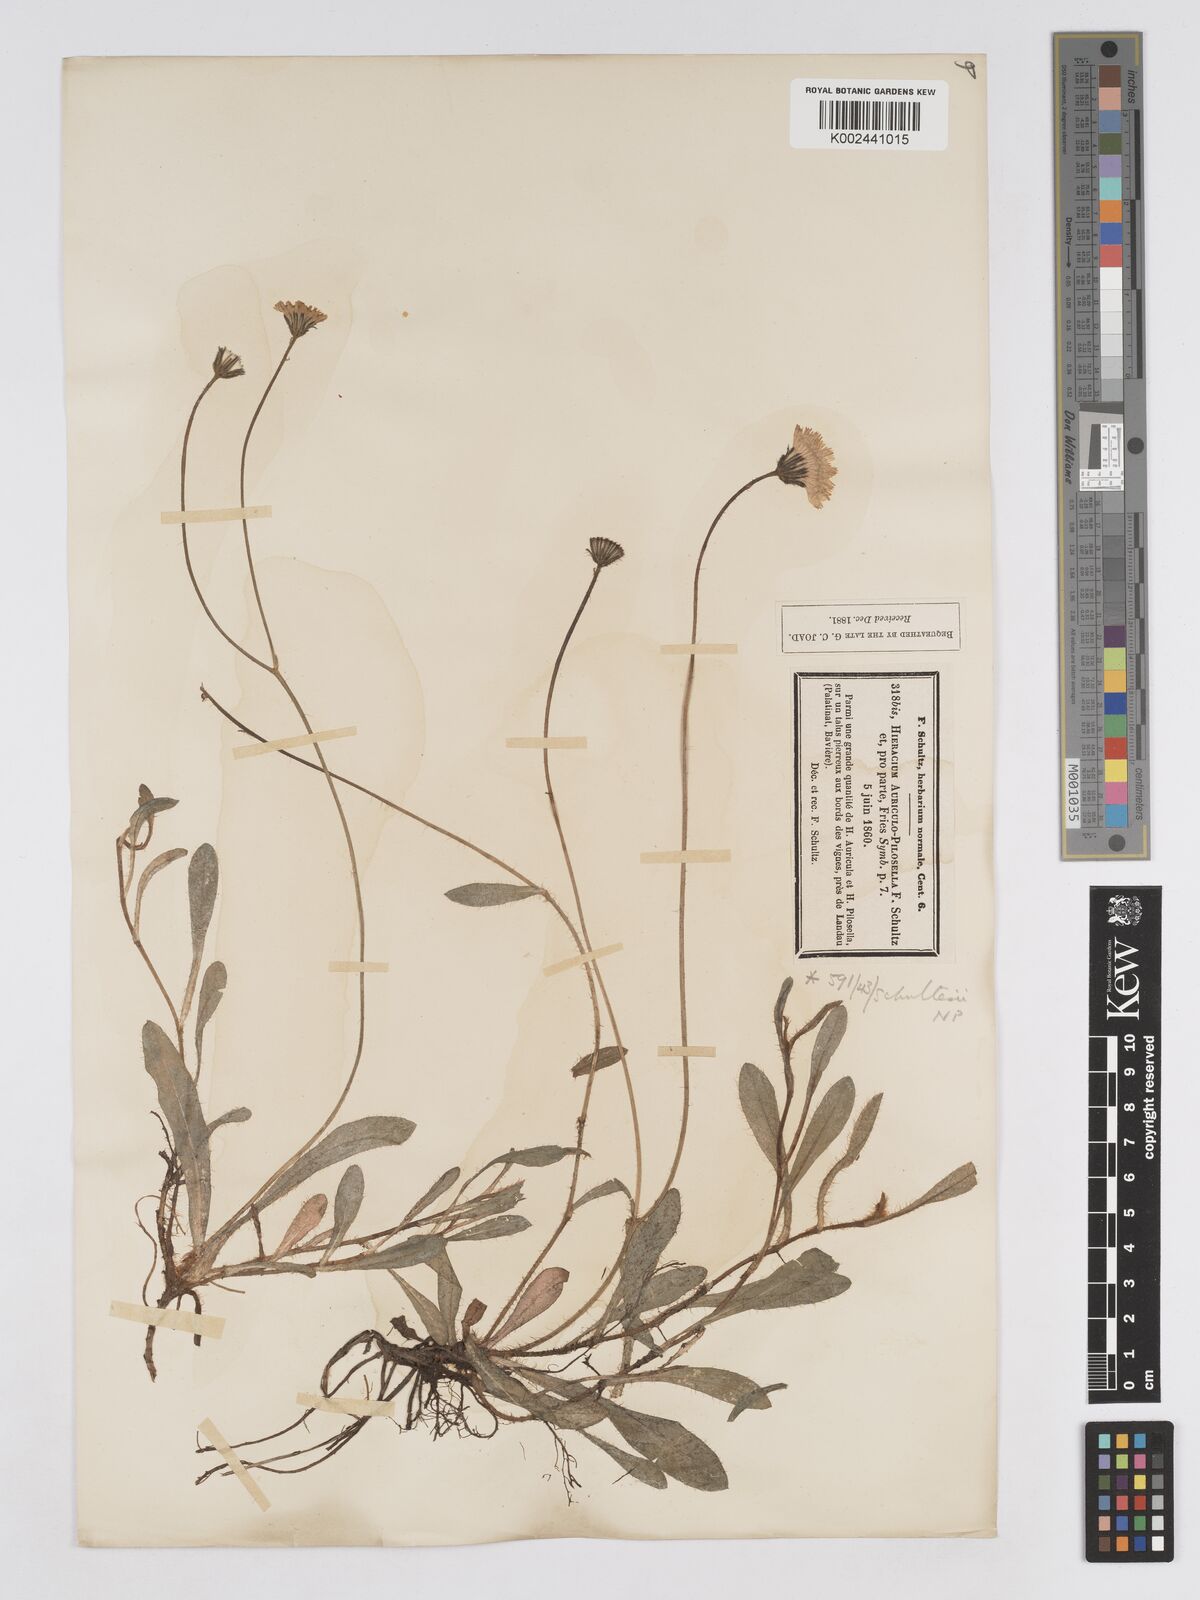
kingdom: Plantae
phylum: Tracheophyta
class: Magnoliopsida
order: Asterales
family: Asteraceae
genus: Pilosella
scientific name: Pilosella schultesii
